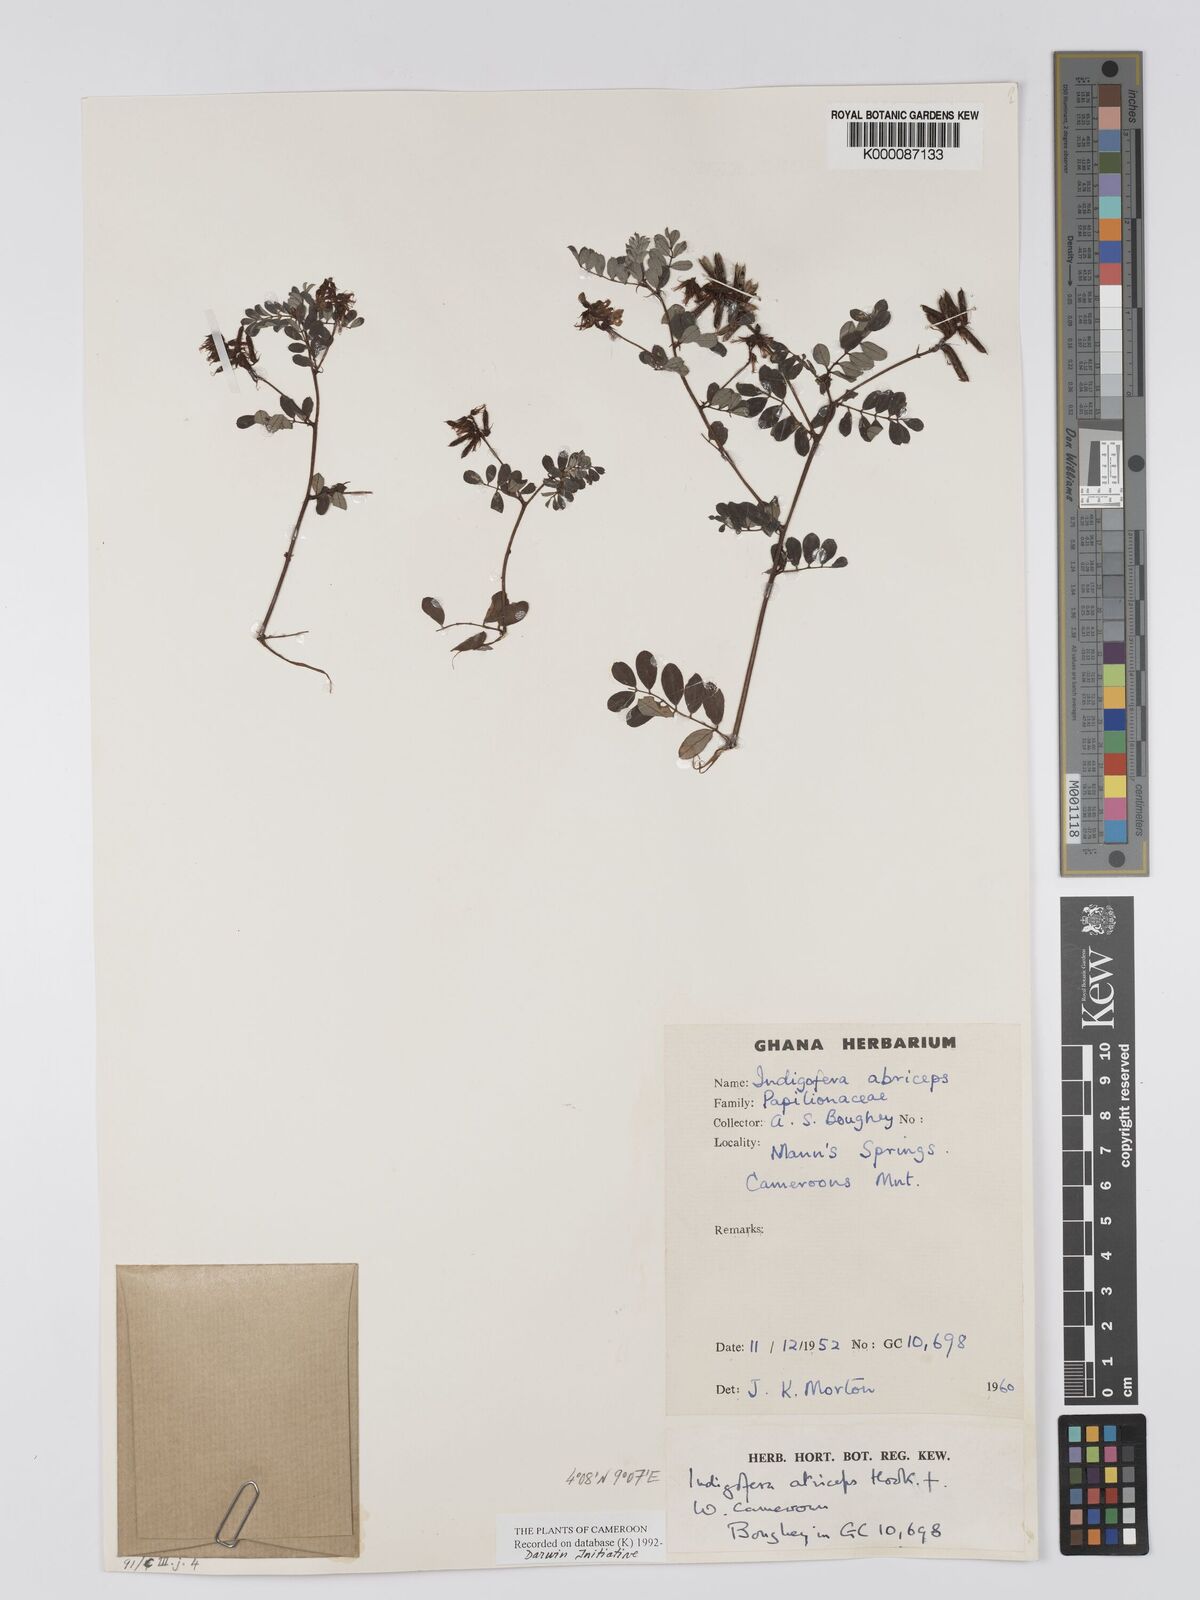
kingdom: Plantae
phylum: Tracheophyta
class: Magnoliopsida
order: Fabales
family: Fabaceae
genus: Indigofera
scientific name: Indigofera atriceps
